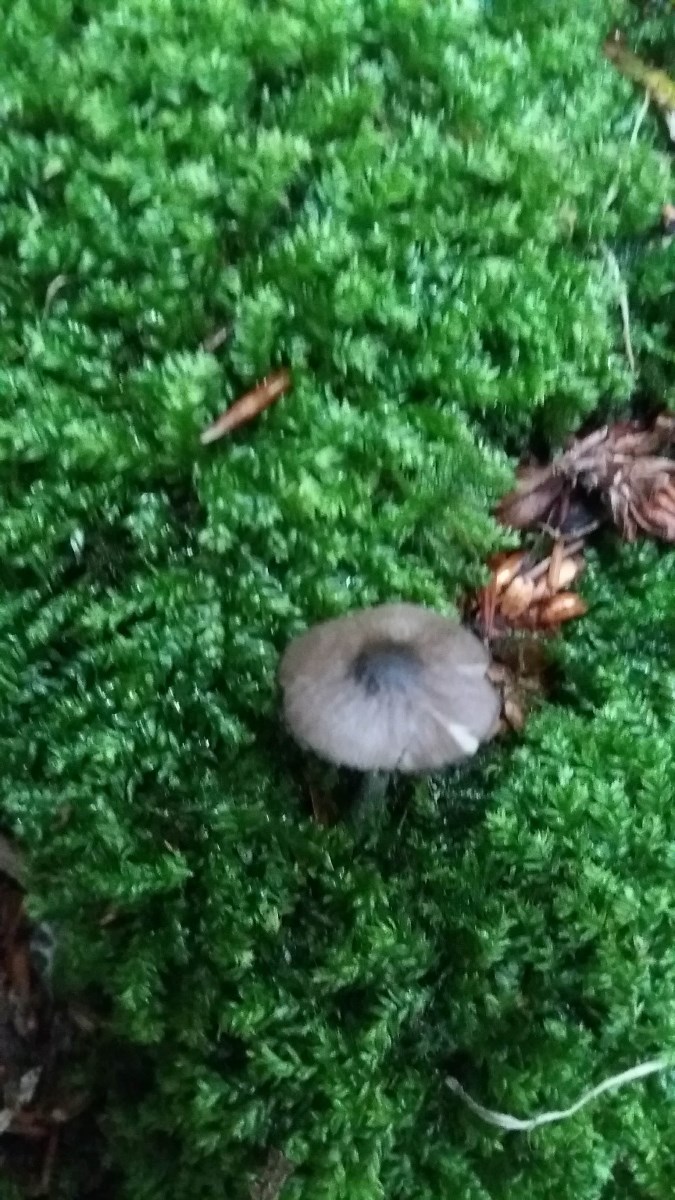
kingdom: Fungi
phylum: Basidiomycota
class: Agaricomycetes
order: Agaricales
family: Pluteaceae
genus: Pluteus
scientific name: Pluteus
